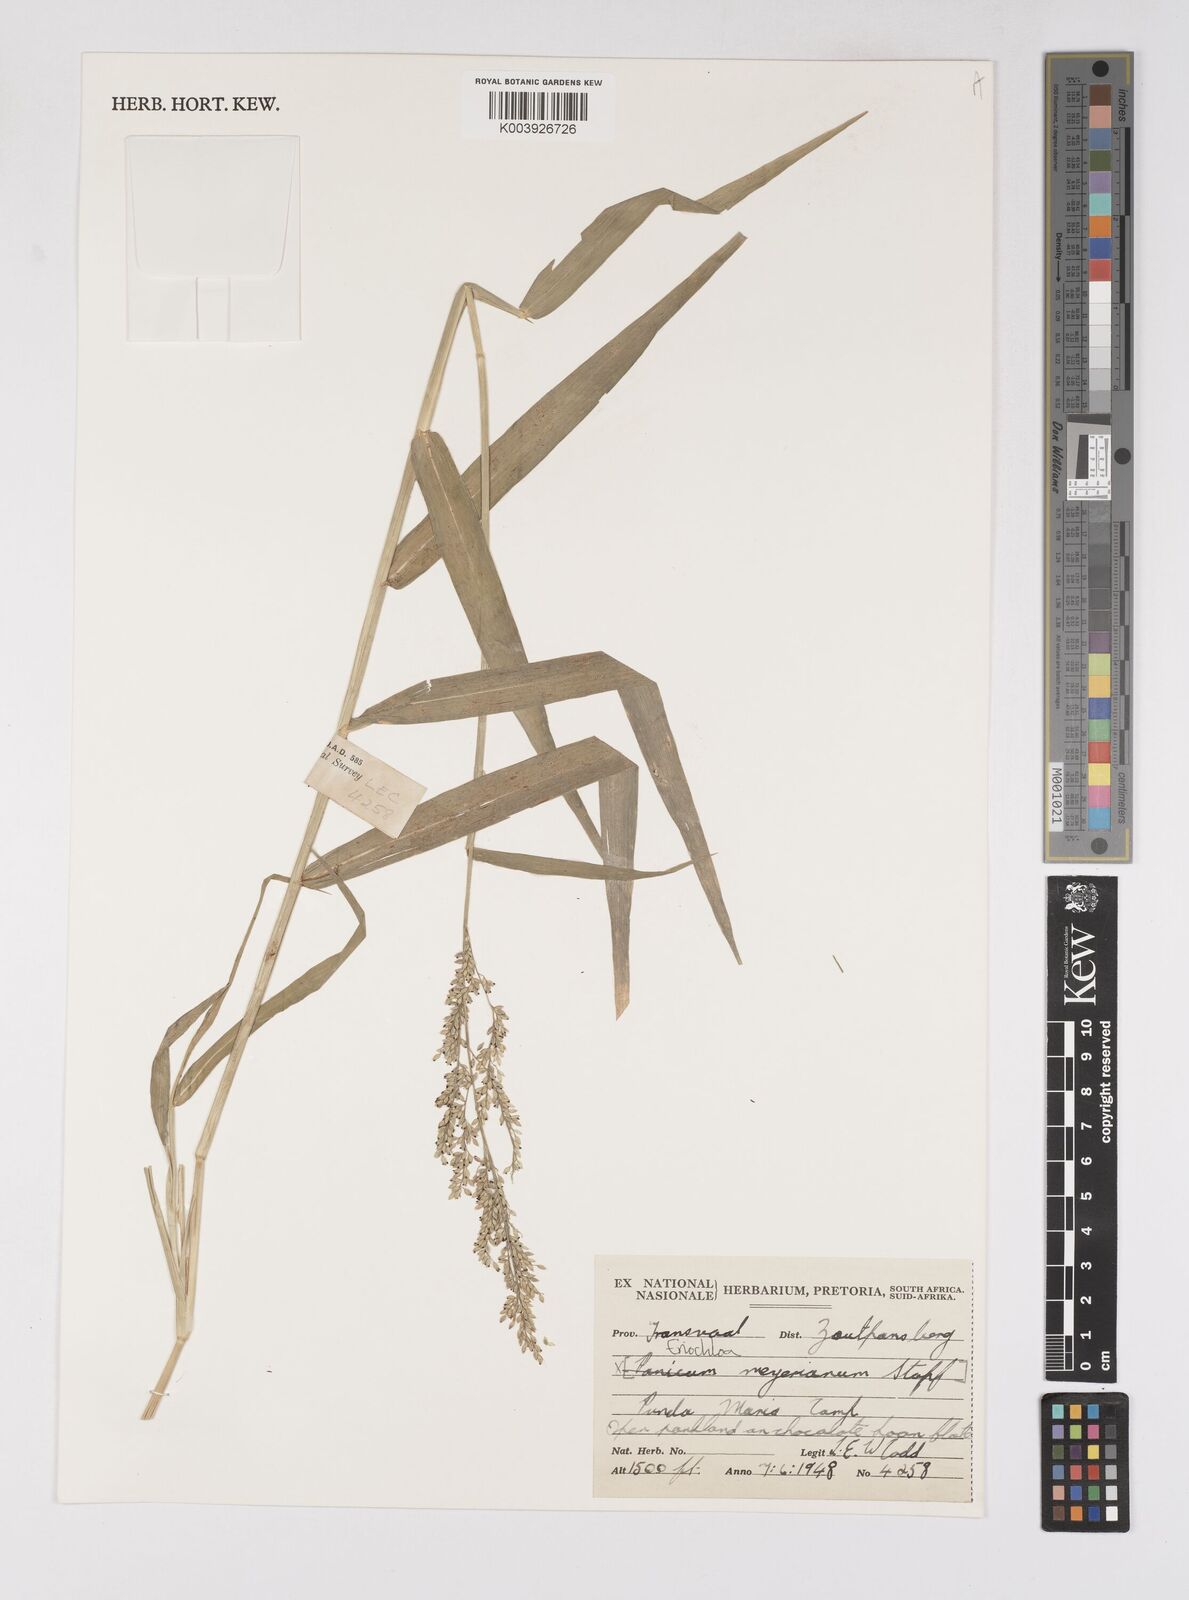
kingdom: Plantae
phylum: Tracheophyta
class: Liliopsida
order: Poales
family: Poaceae
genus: Eriochloa
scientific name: Eriochloa meyeriana
